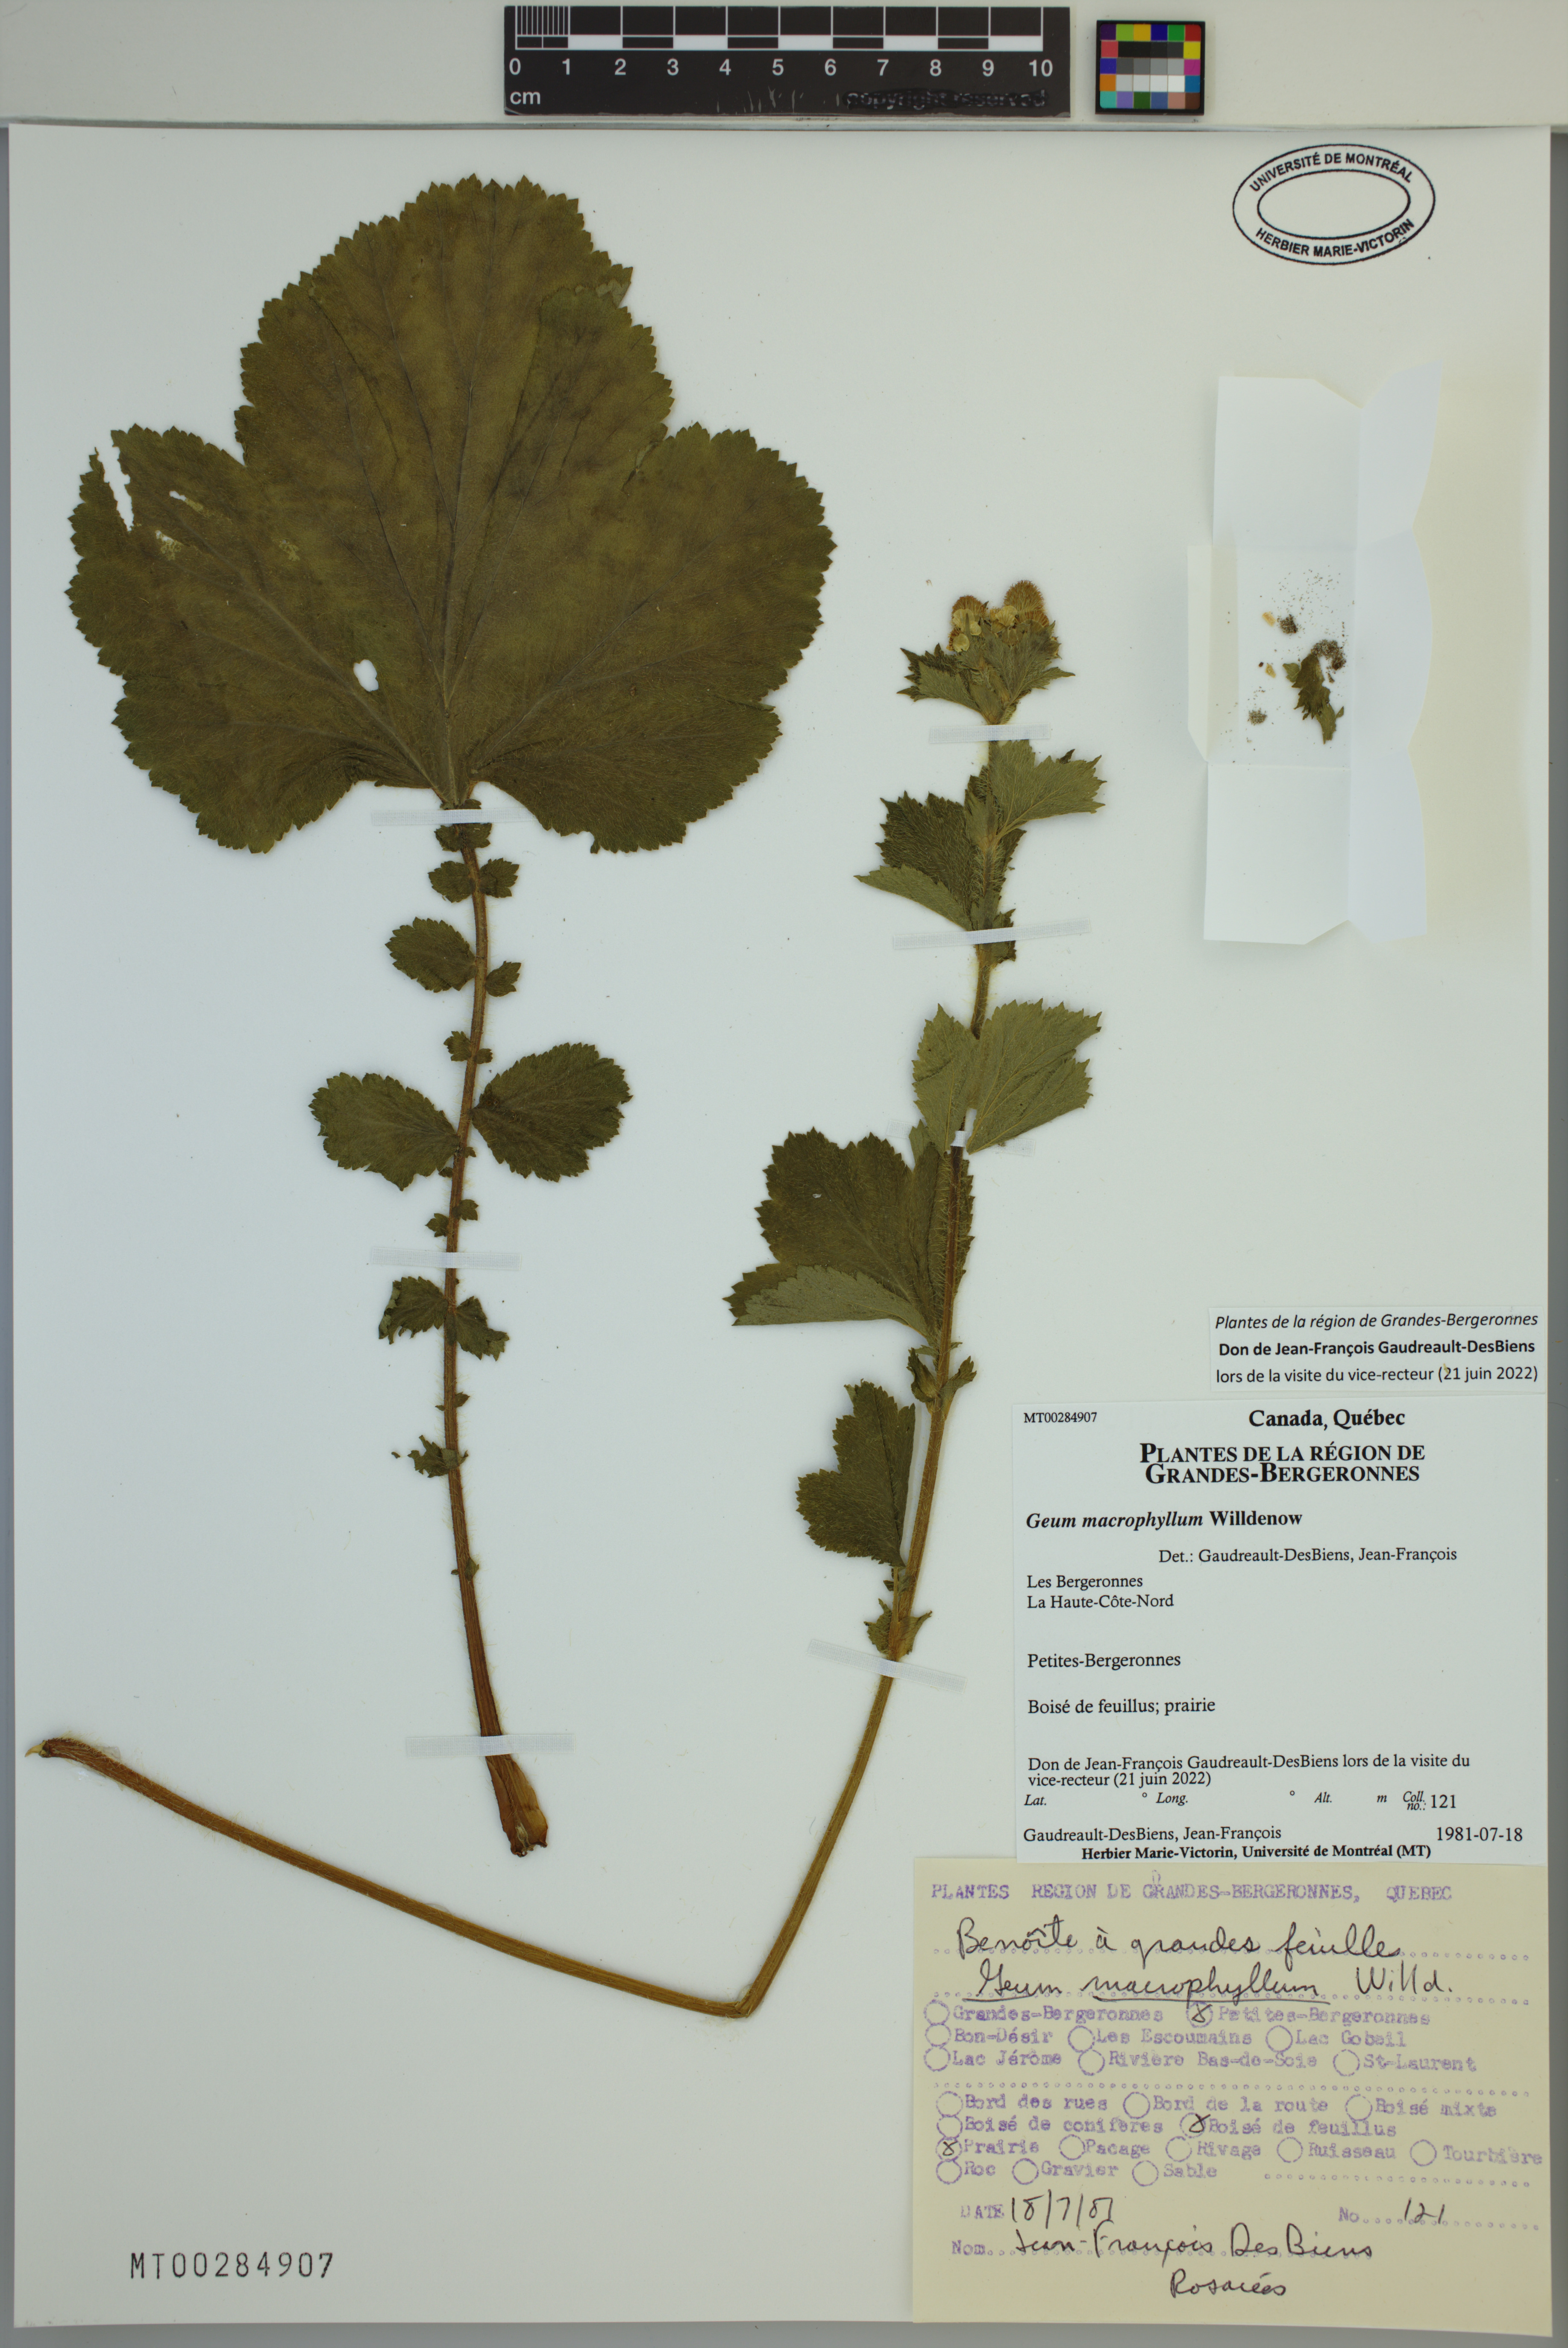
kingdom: Plantae
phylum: Tracheophyta
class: Magnoliopsida
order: Rosales
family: Rosaceae
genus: Geum
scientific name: Geum macrophyllum
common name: Large-leaved avens
